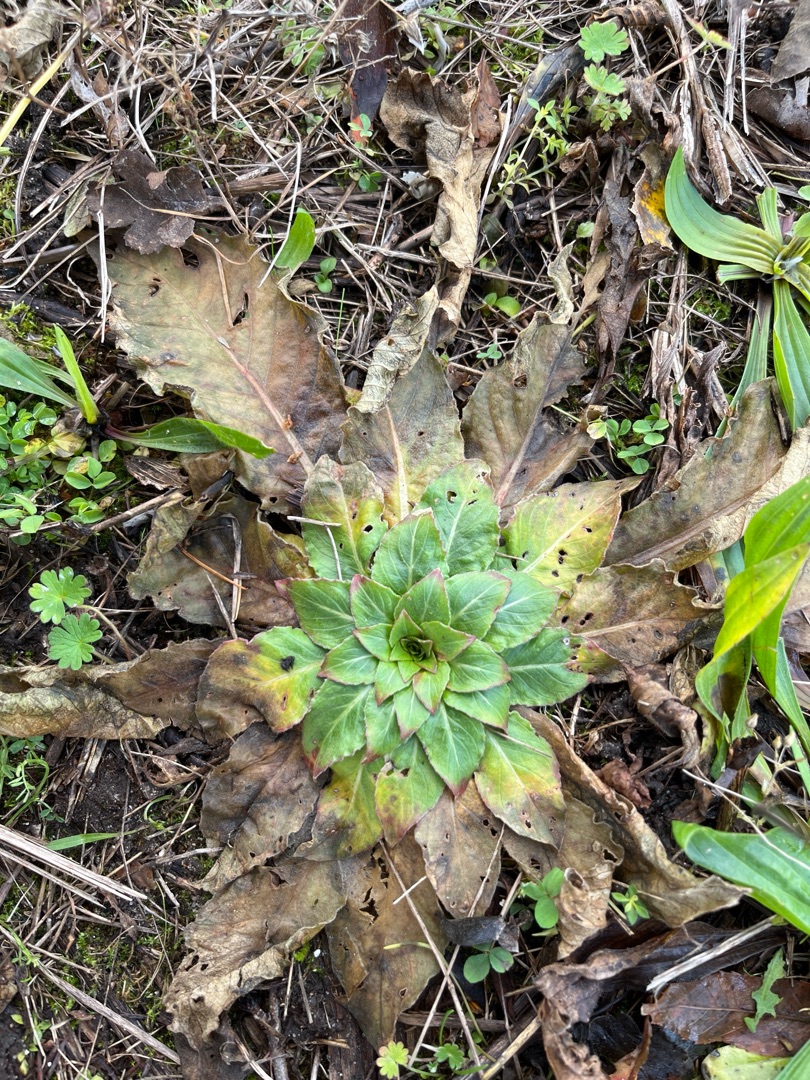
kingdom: Plantae
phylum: Tracheophyta
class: Magnoliopsida
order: Myrtales
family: Onagraceae
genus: Oenothera
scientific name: Oenothera
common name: Natlysslægten
